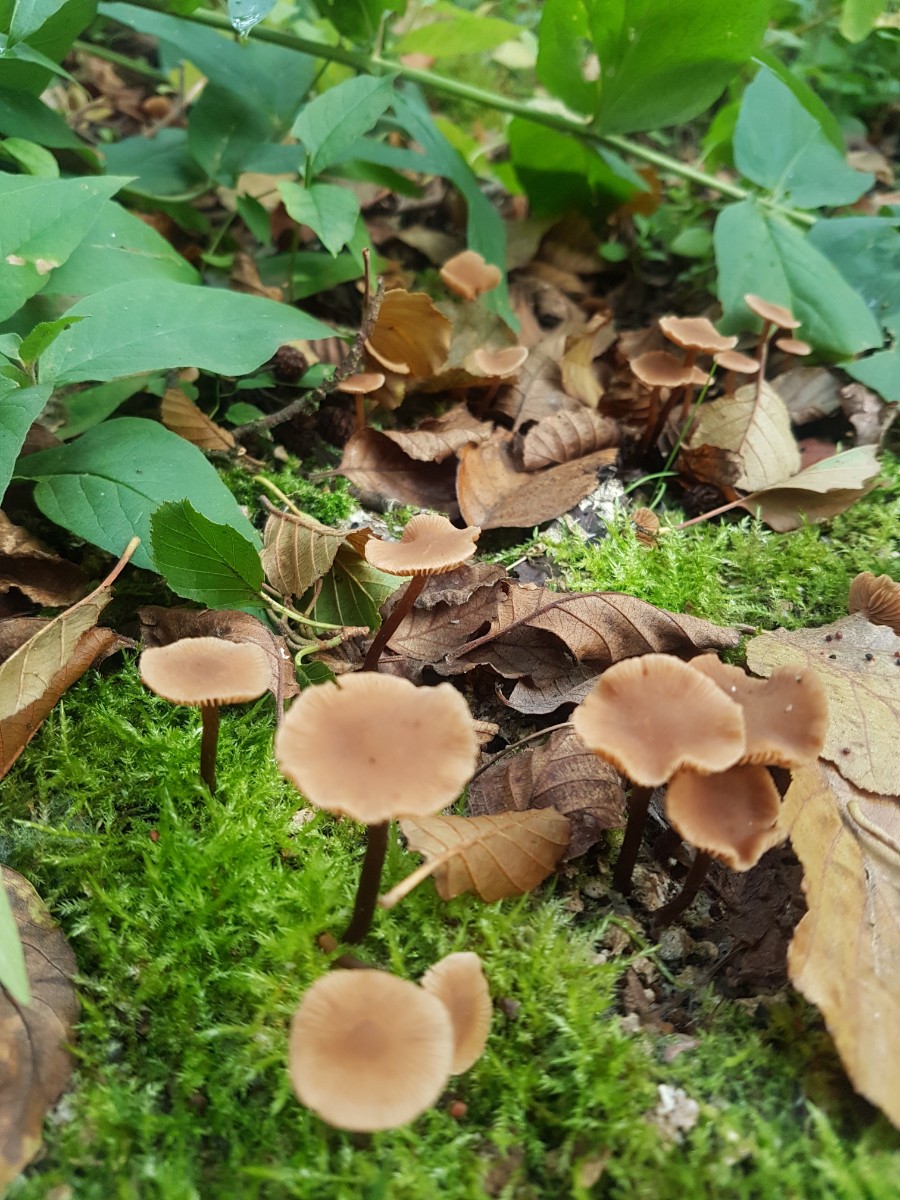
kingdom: Fungi
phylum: Basidiomycota
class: Agaricomycetes
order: Agaricales
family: Hymenogastraceae
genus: Naucoria
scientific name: Naucoria
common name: knaphat
